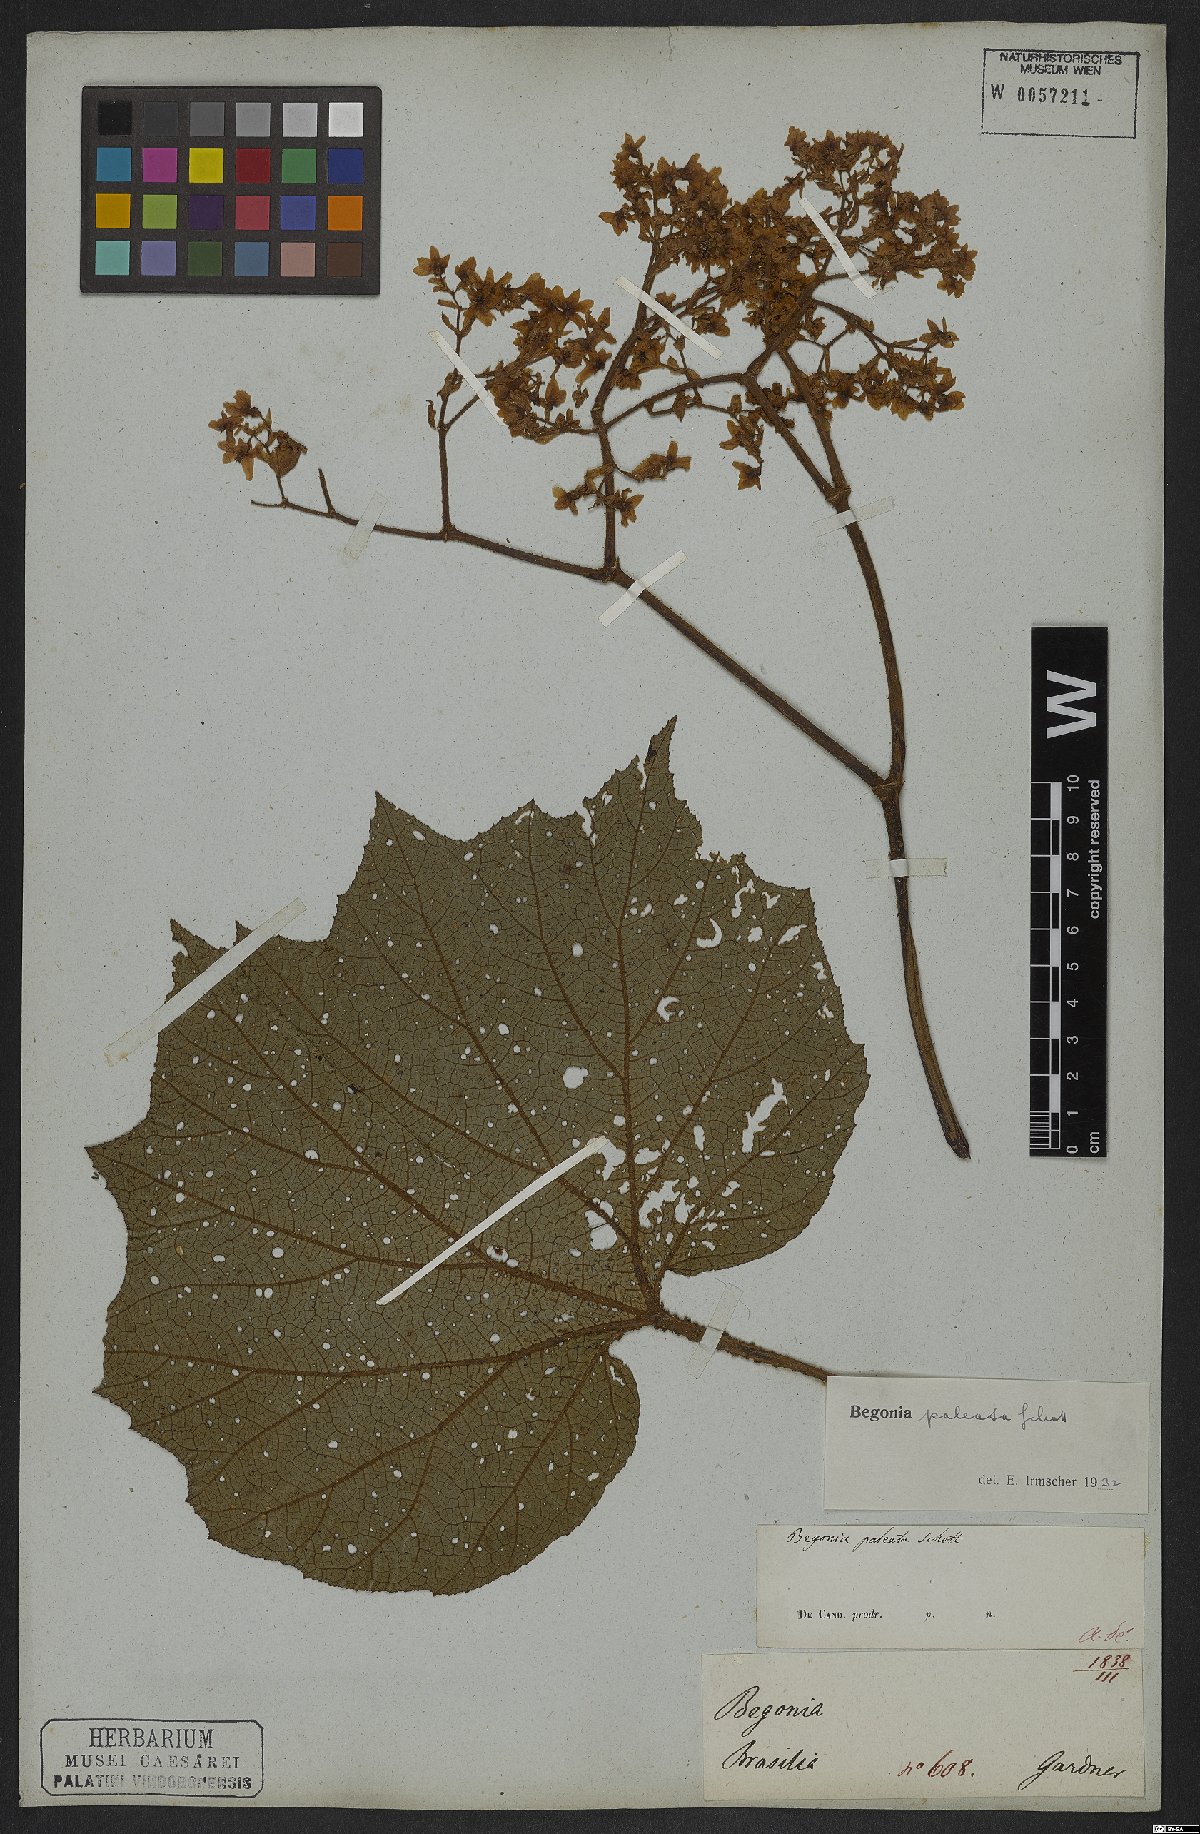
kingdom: Plantae
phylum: Tracheophyta
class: Magnoliopsida
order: Cucurbitales
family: Begoniaceae
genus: Begonia
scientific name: Begonia paleata
